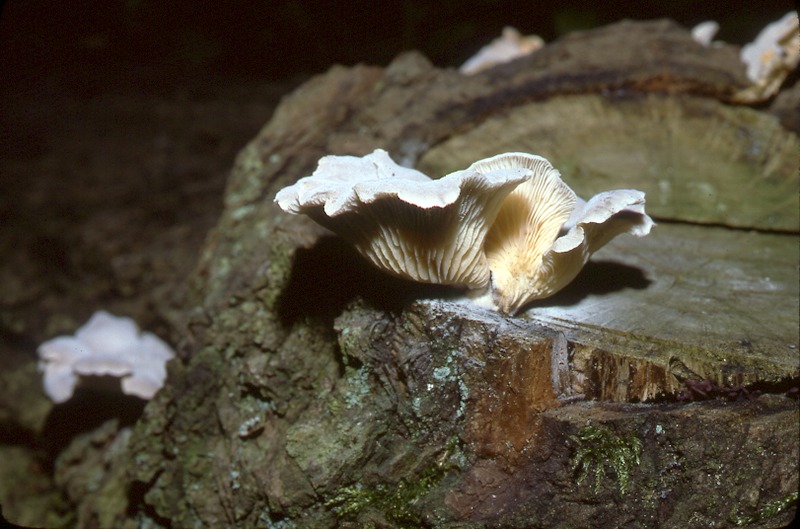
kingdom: Plantae
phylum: Tracheophyta
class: Magnoliopsida
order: Fagales
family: Fagaceae
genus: Quercus
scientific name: Quercus
